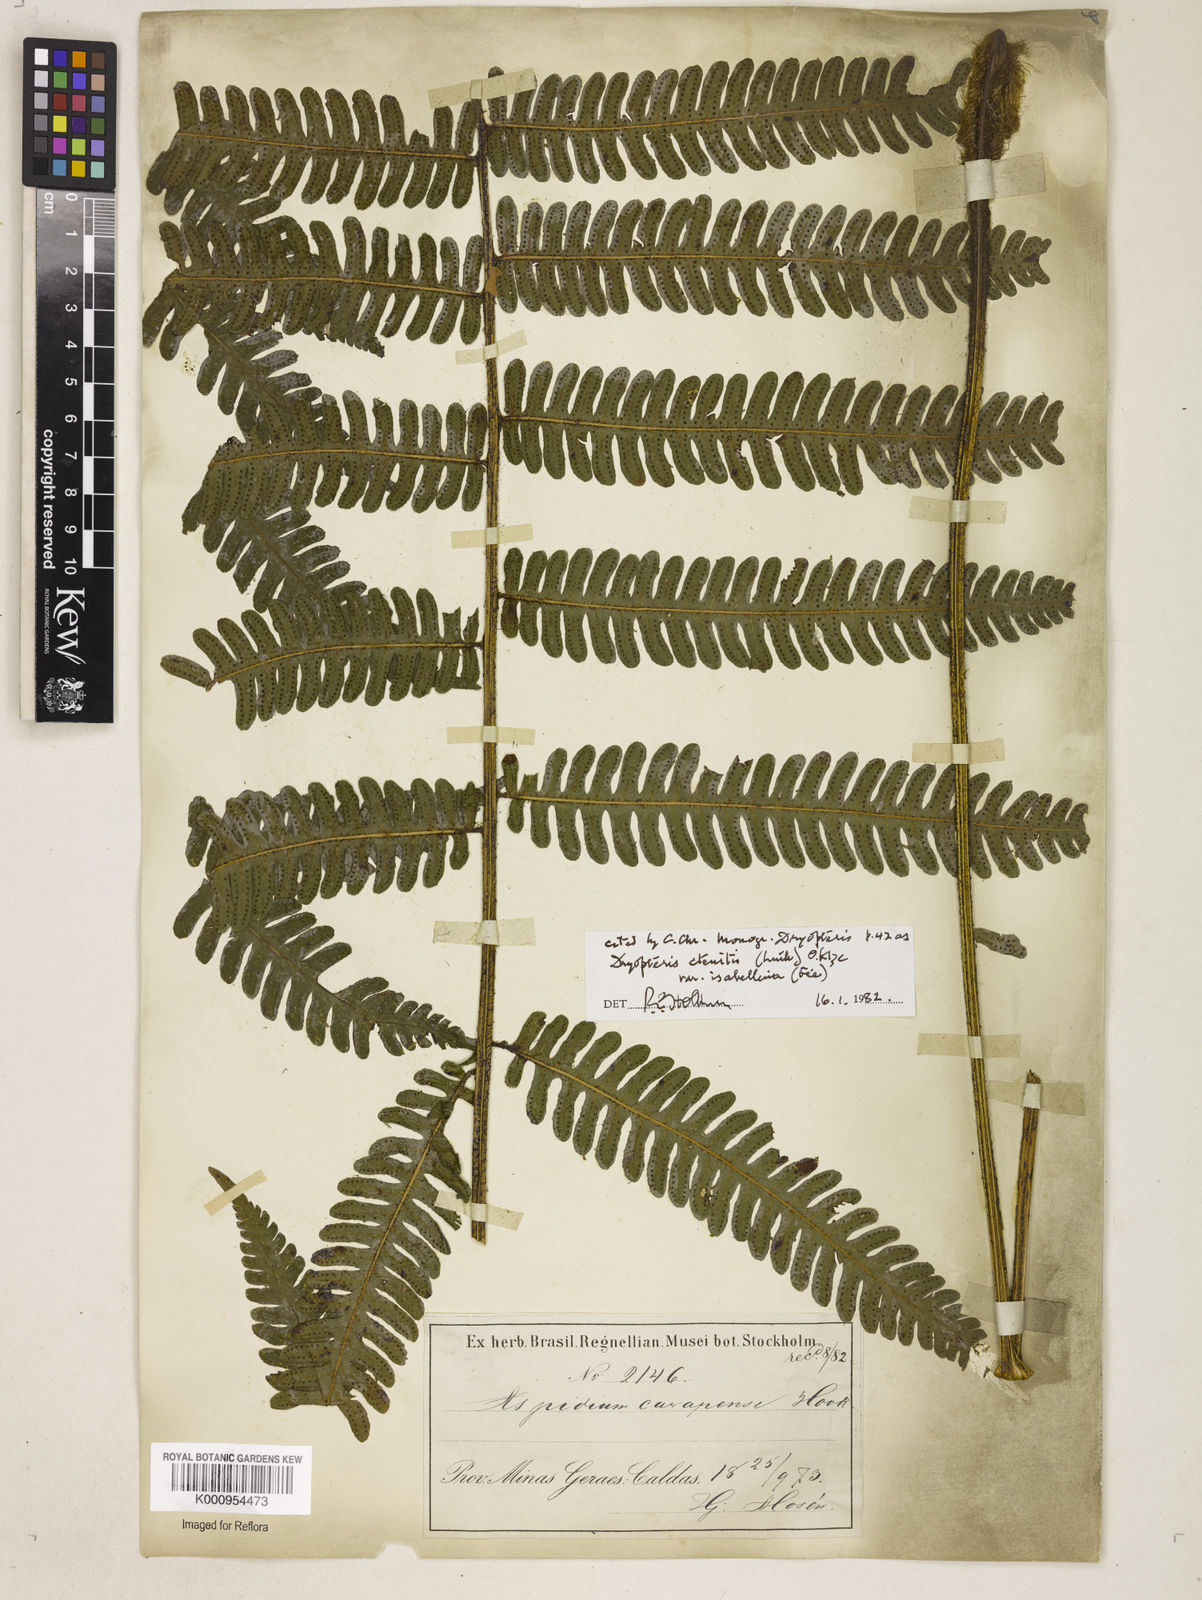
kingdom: Plantae
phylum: Tracheophyta
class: Polypodiopsida
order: Polypodiales
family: Dryopteridaceae
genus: Ctenitis
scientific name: Ctenitis
